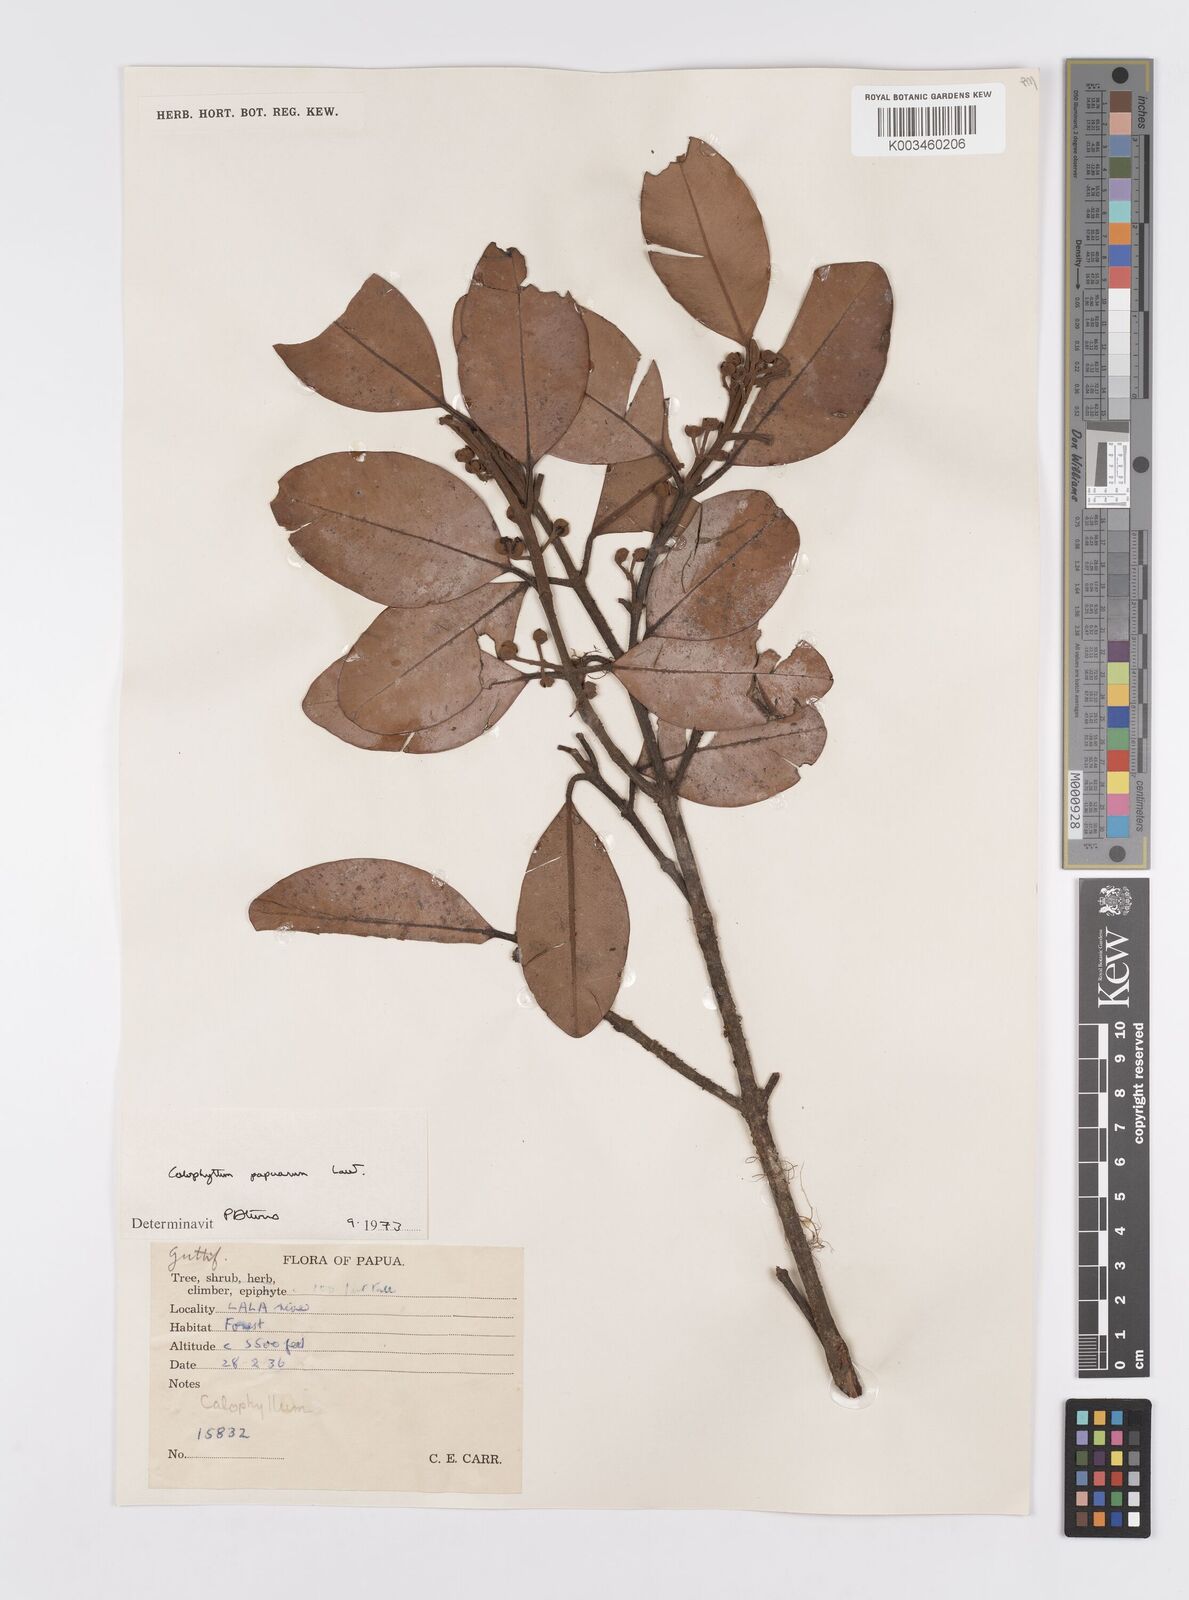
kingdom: Plantae
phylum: Tracheophyta
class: Magnoliopsida
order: Malpighiales
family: Calophyllaceae
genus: Calophyllum
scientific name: Calophyllum papuanum
